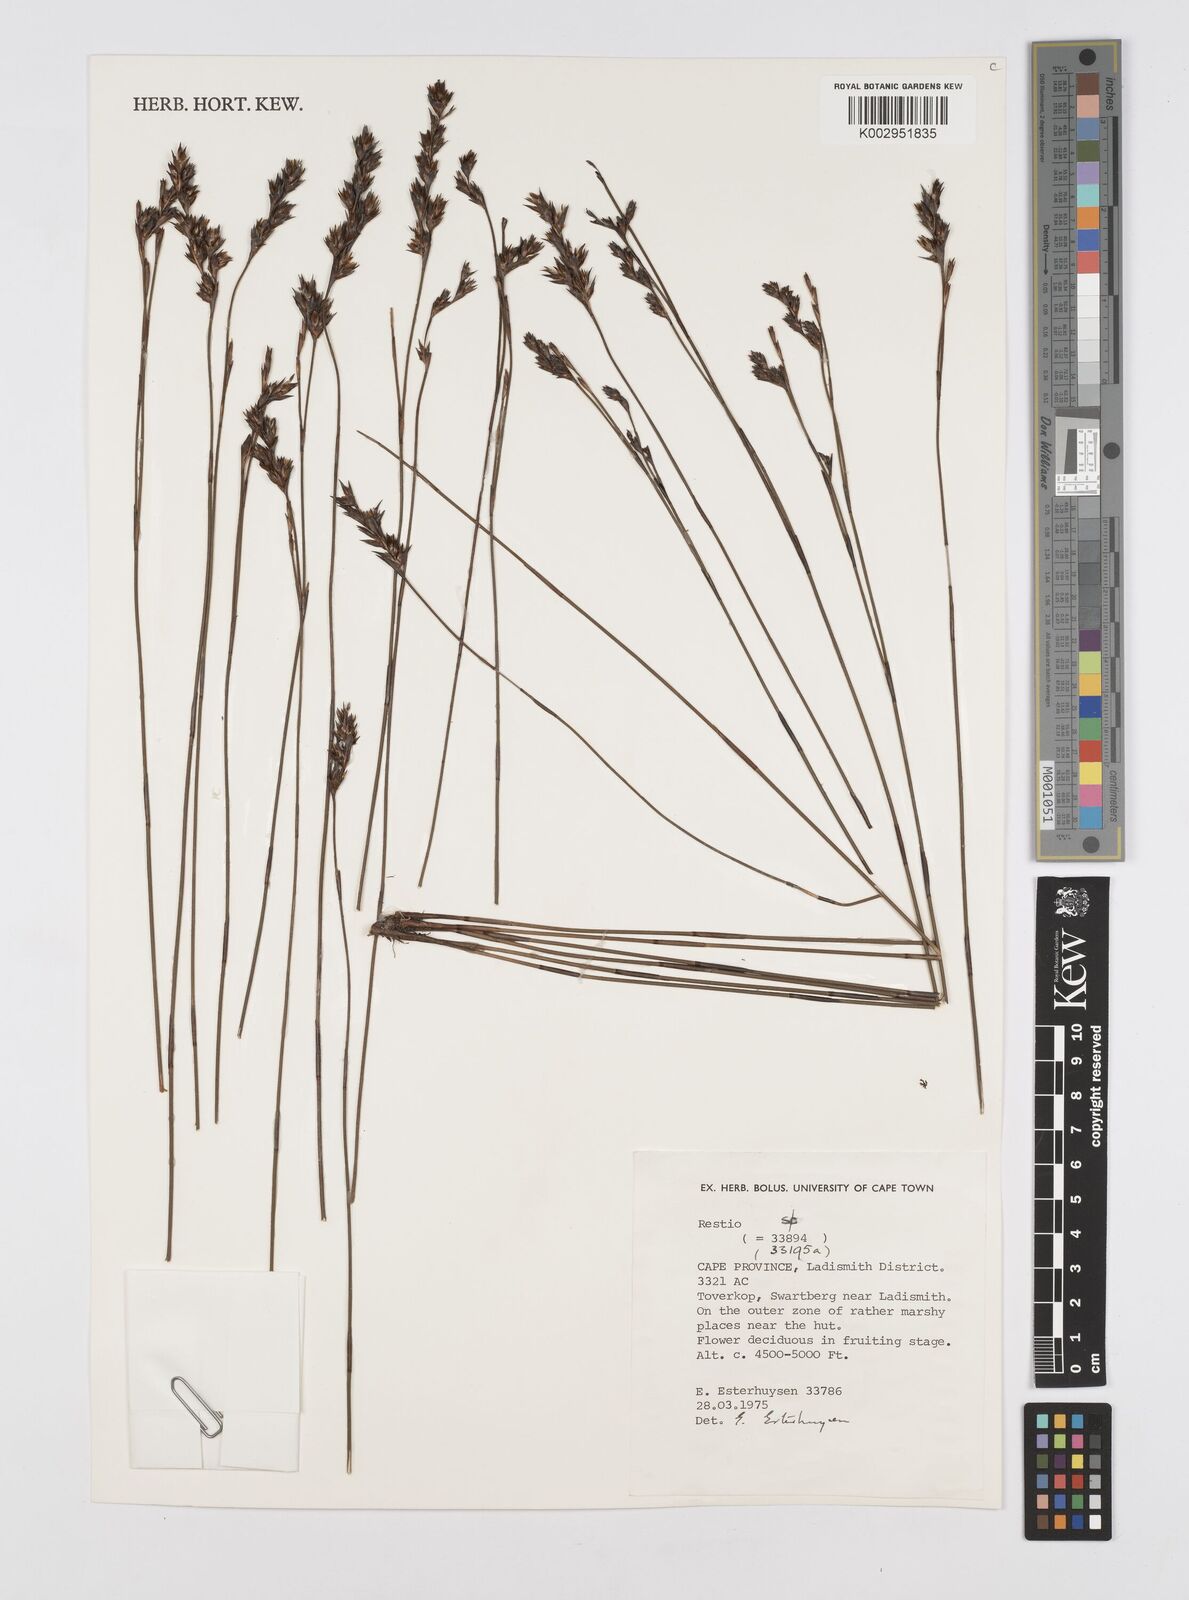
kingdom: Plantae
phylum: Tracheophyta
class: Liliopsida
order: Poales
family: Restionaceae
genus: Restio
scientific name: Restio
